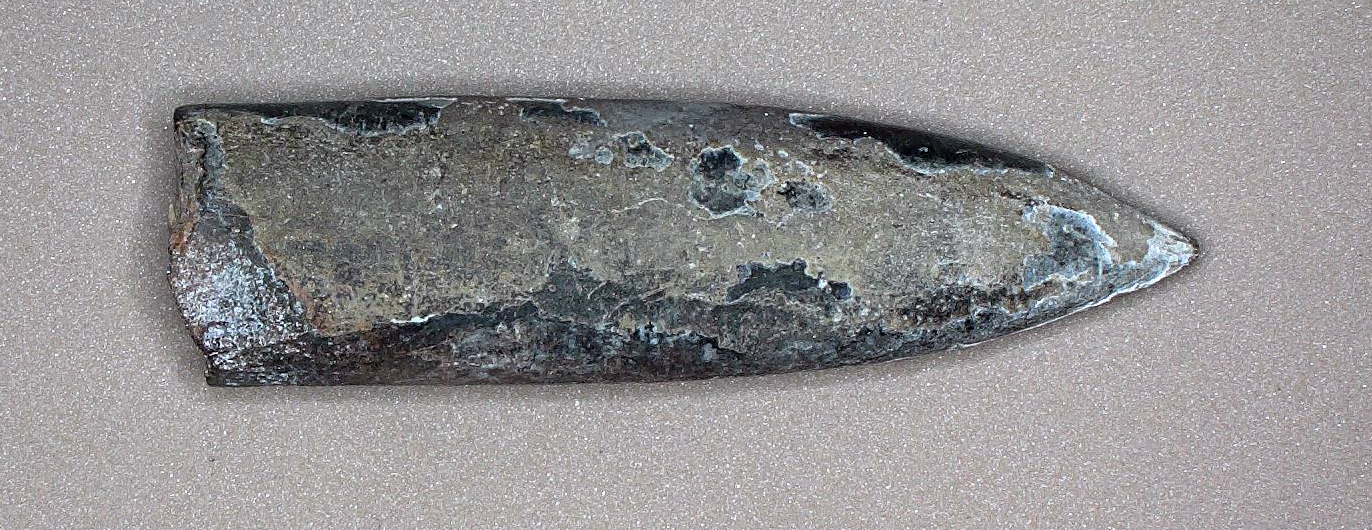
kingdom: Animalia
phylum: Mollusca
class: Cephalopoda
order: Belemnitida
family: Passaloteuthidae
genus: Parapassaloteuthis
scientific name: Parapassaloteuthis polita
